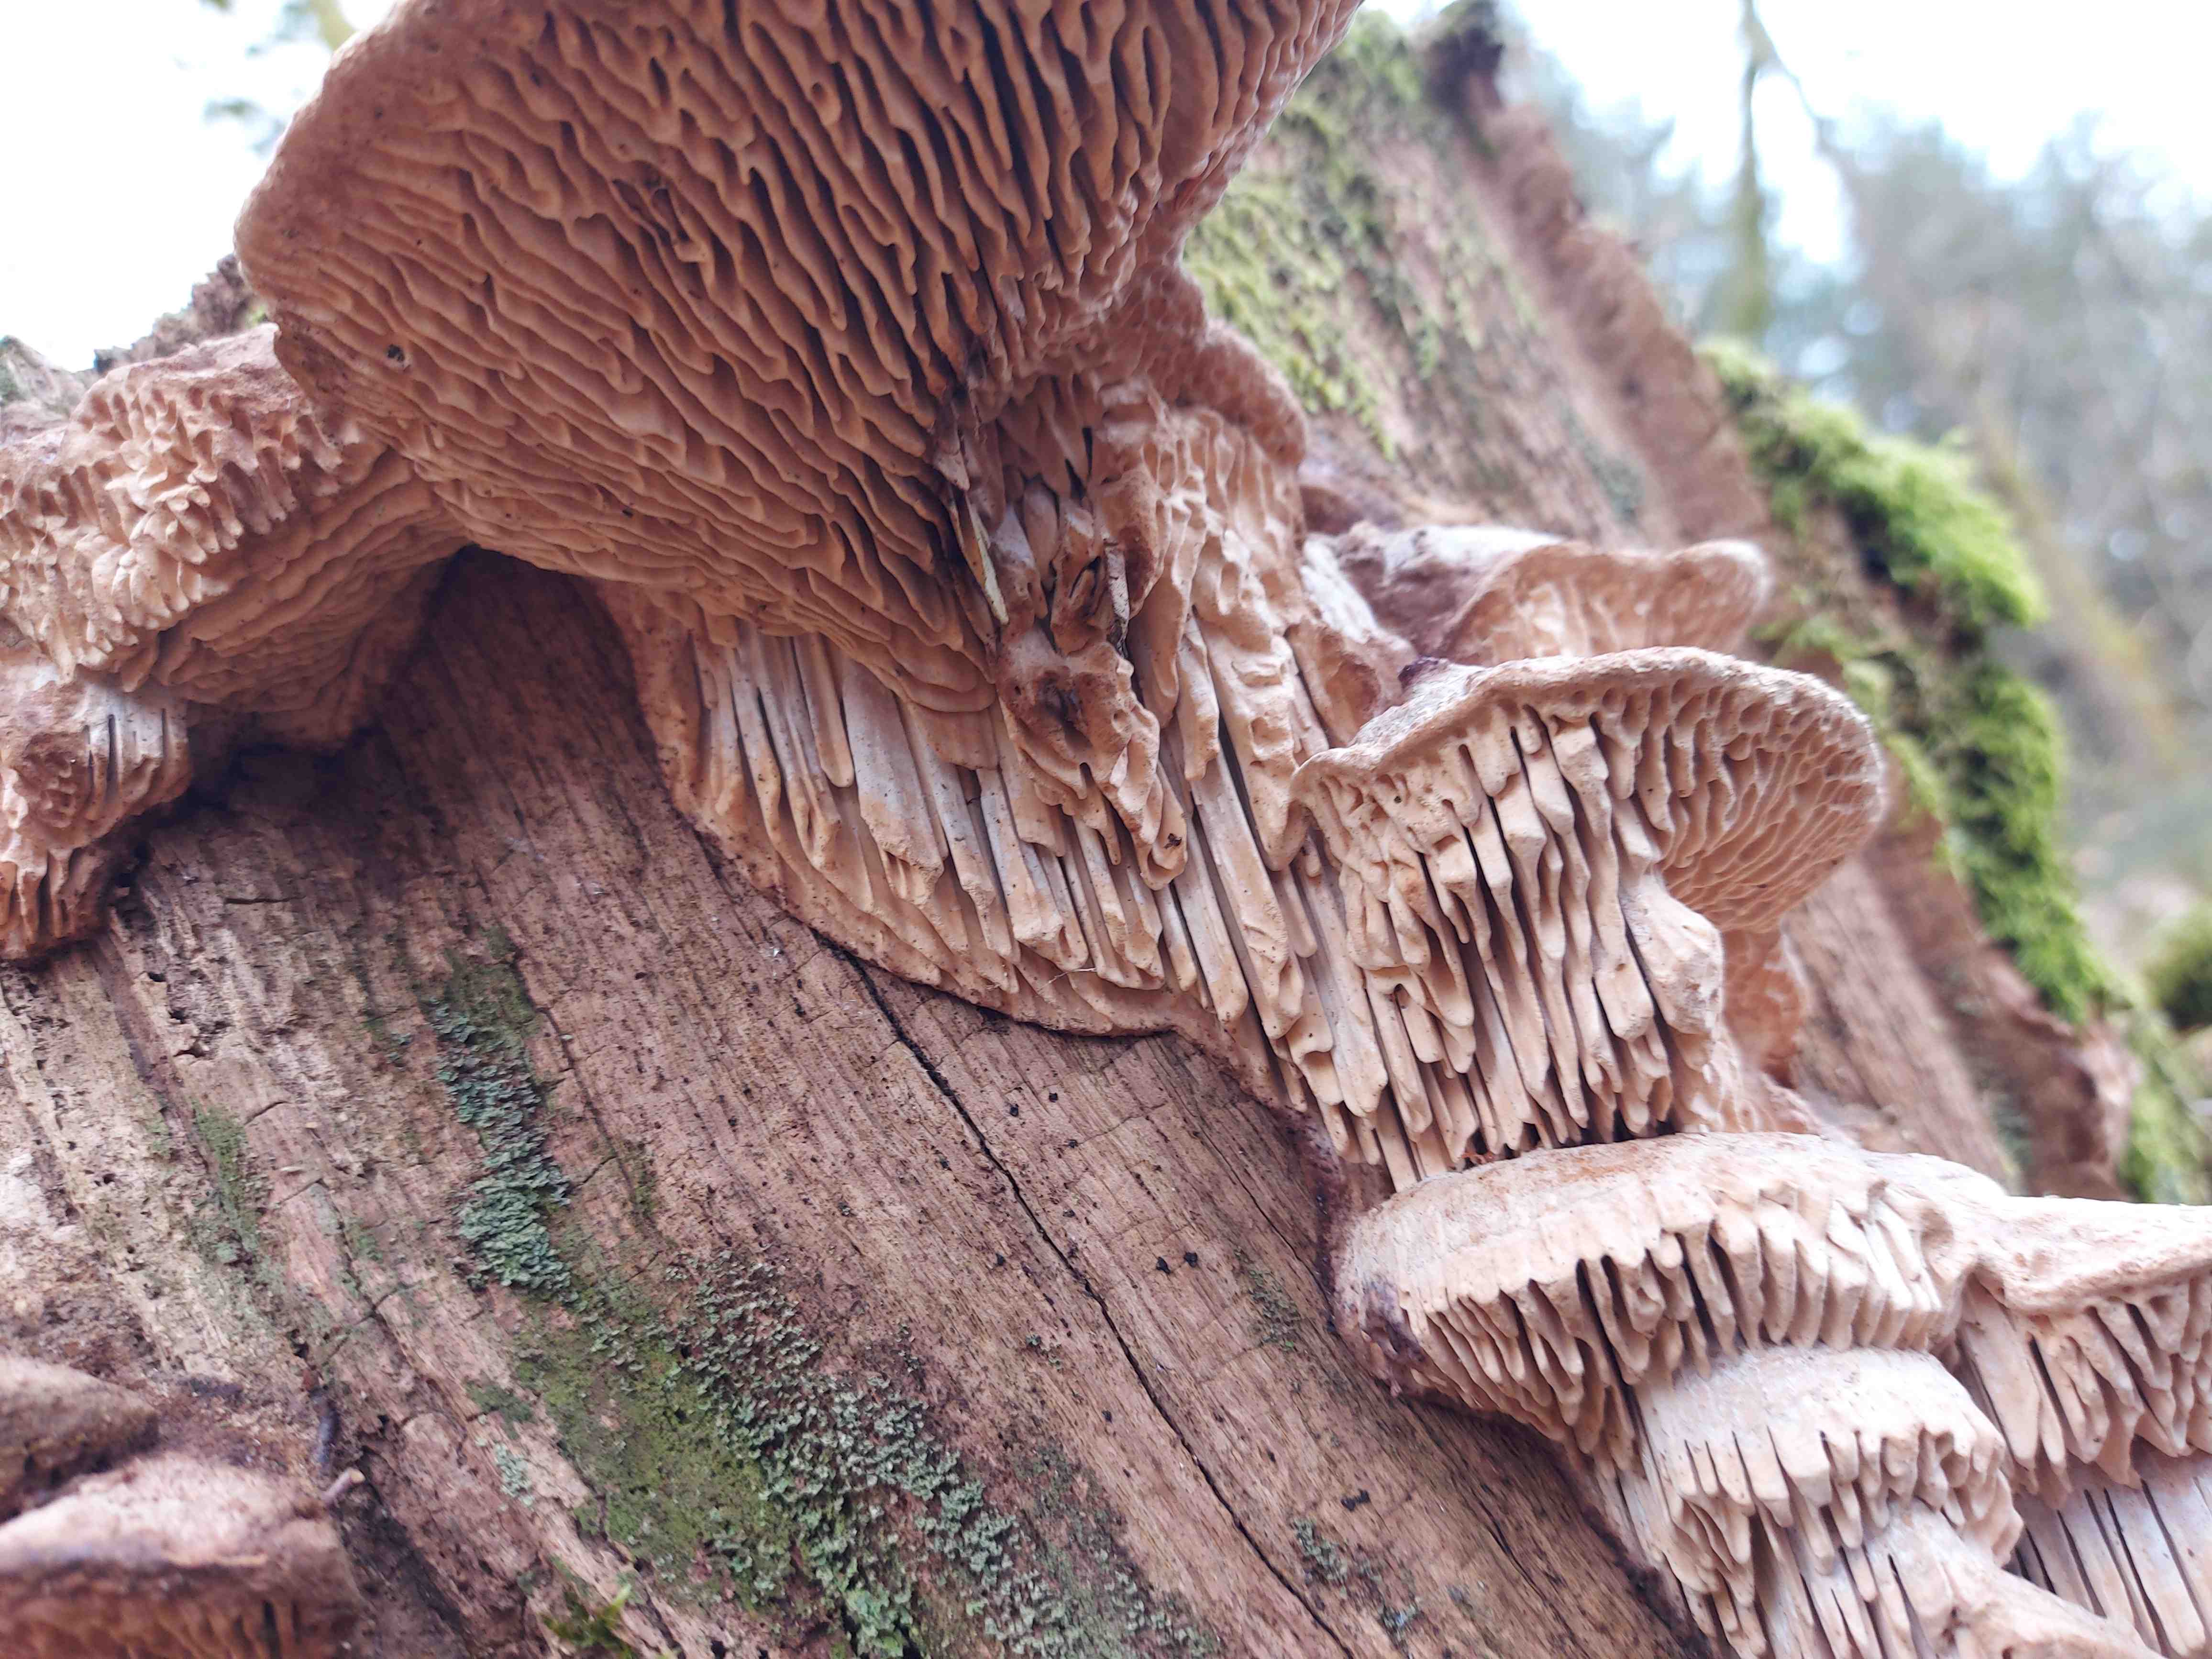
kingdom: Fungi
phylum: Basidiomycota
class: Agaricomycetes
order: Polyporales
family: Fomitopsidaceae
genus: Daedalea
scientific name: Daedalea quercina
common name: ege-labyrintsvamp
